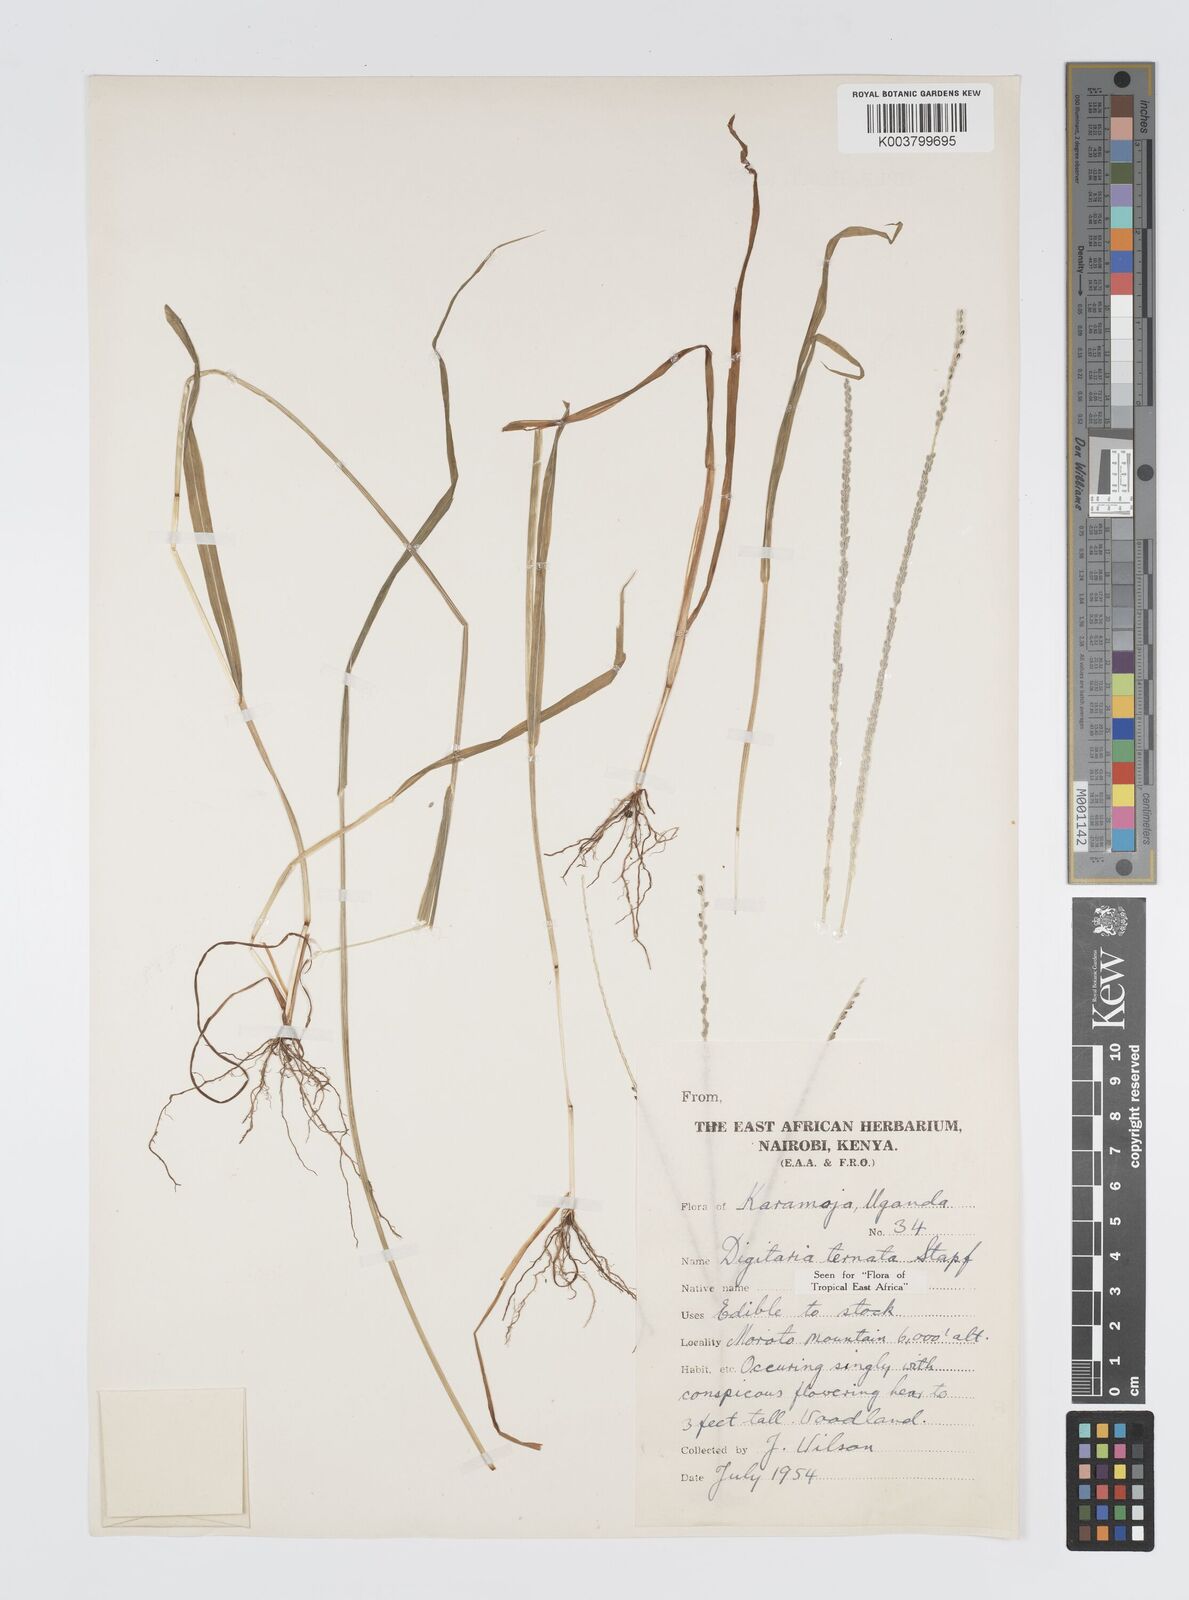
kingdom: Plantae
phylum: Tracheophyta
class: Liliopsida
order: Poales
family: Poaceae
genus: Digitaria
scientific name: Digitaria ternata
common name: Blackseed crabgrass
